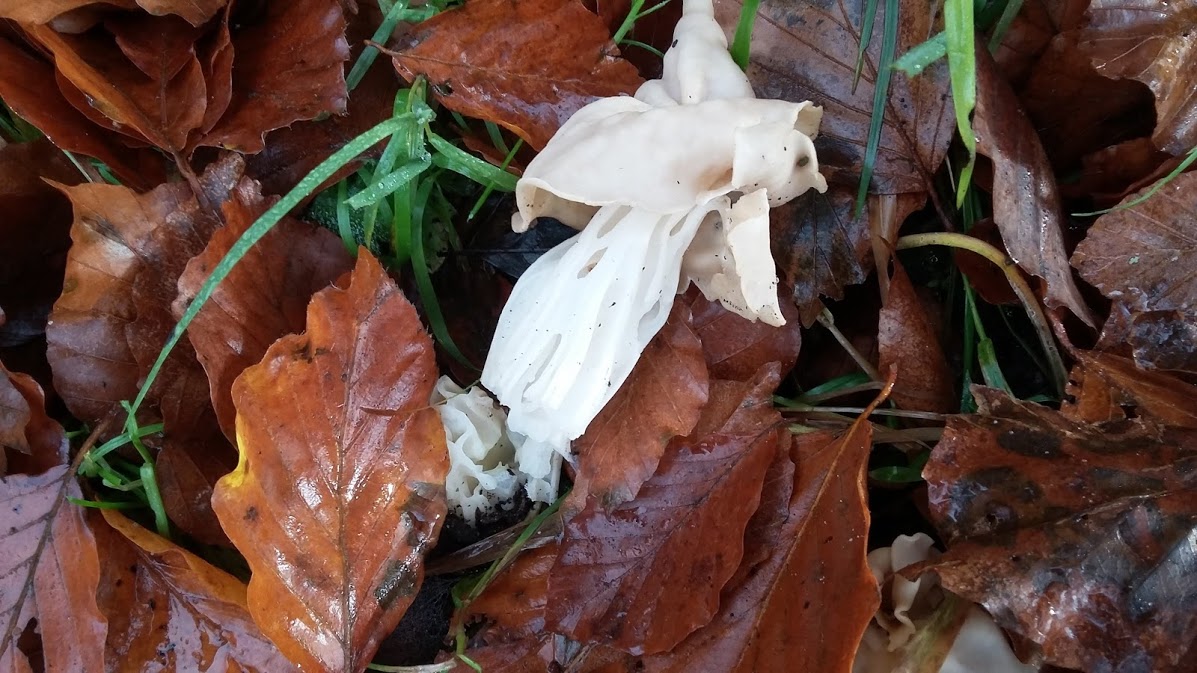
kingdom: Fungi
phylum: Ascomycota
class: Pezizomycetes
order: Pezizales
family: Helvellaceae
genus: Helvella
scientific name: Helvella crispa
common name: kruset foldhat
